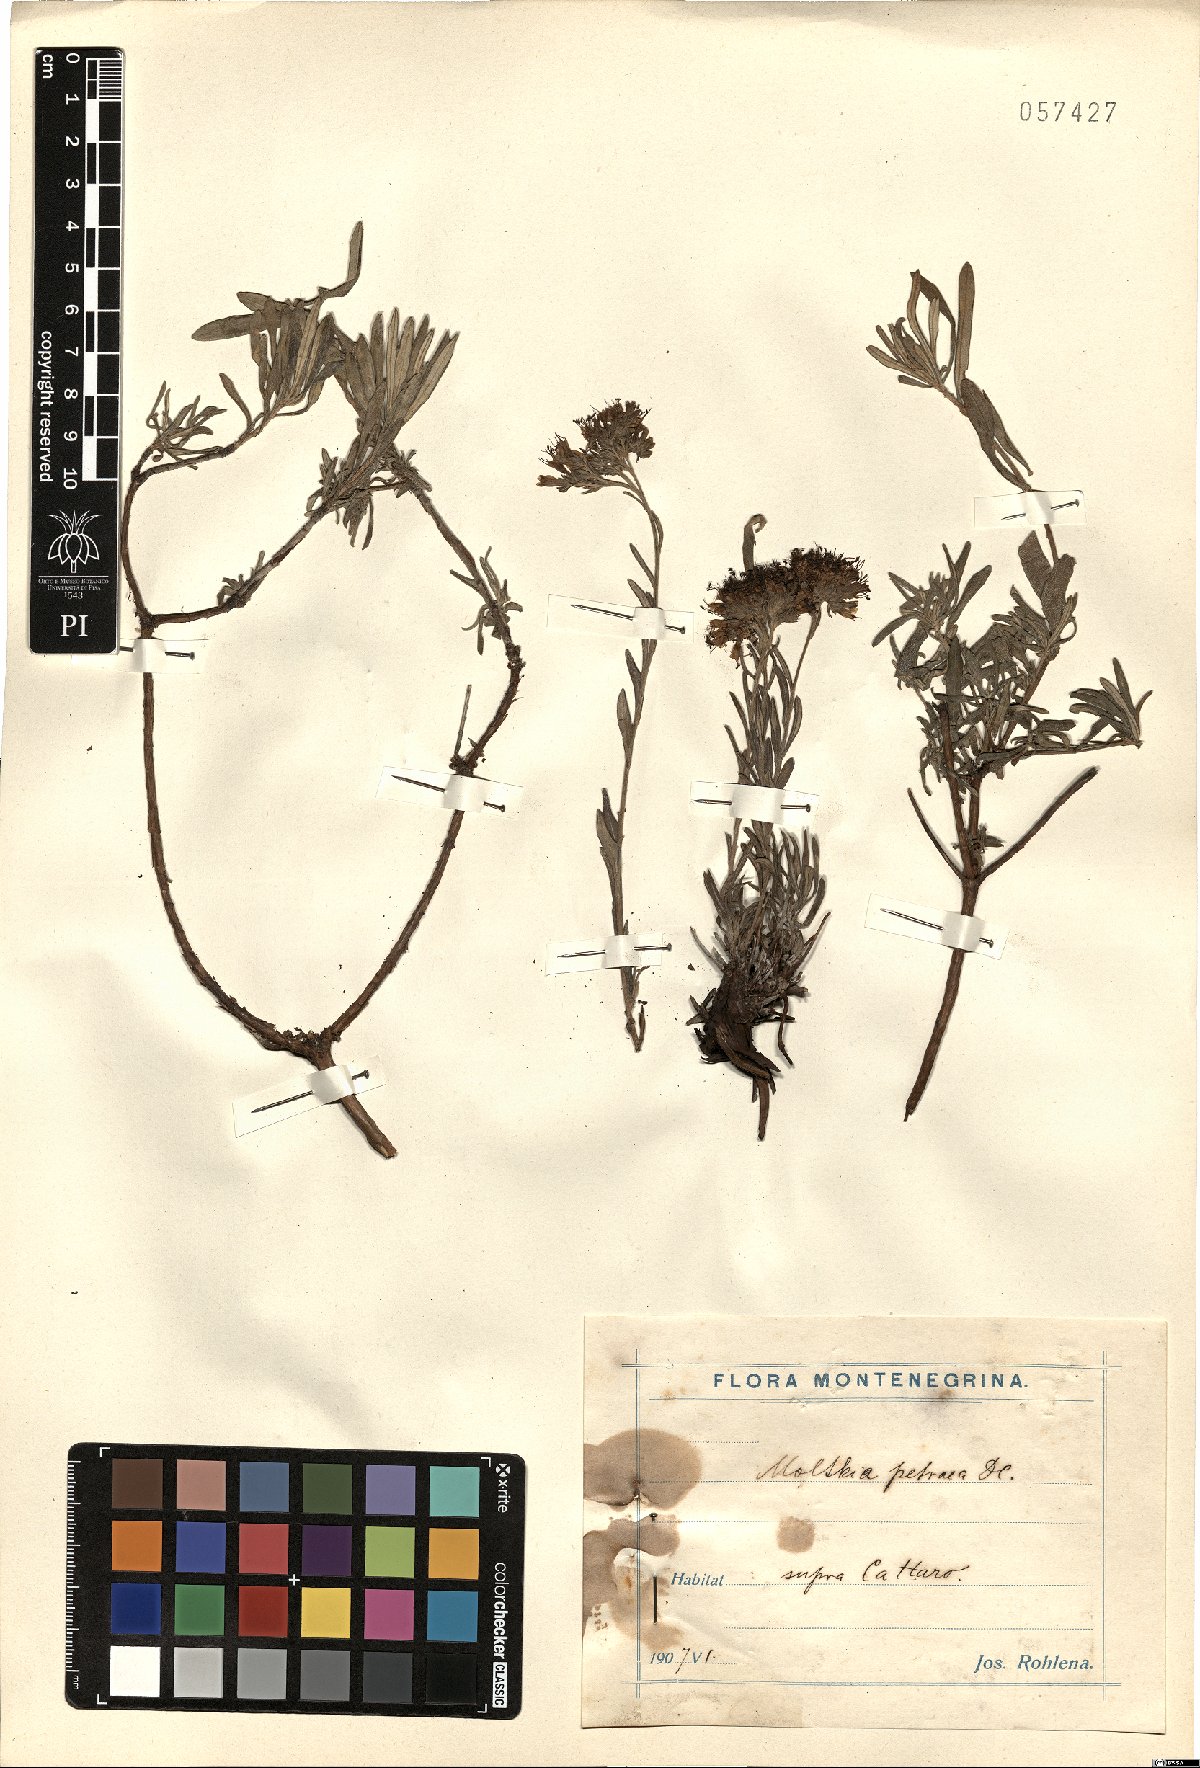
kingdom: Plantae
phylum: Tracheophyta
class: Magnoliopsida
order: Boraginales
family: Boraginaceae
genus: Moltkia
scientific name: Moltkia petraea
